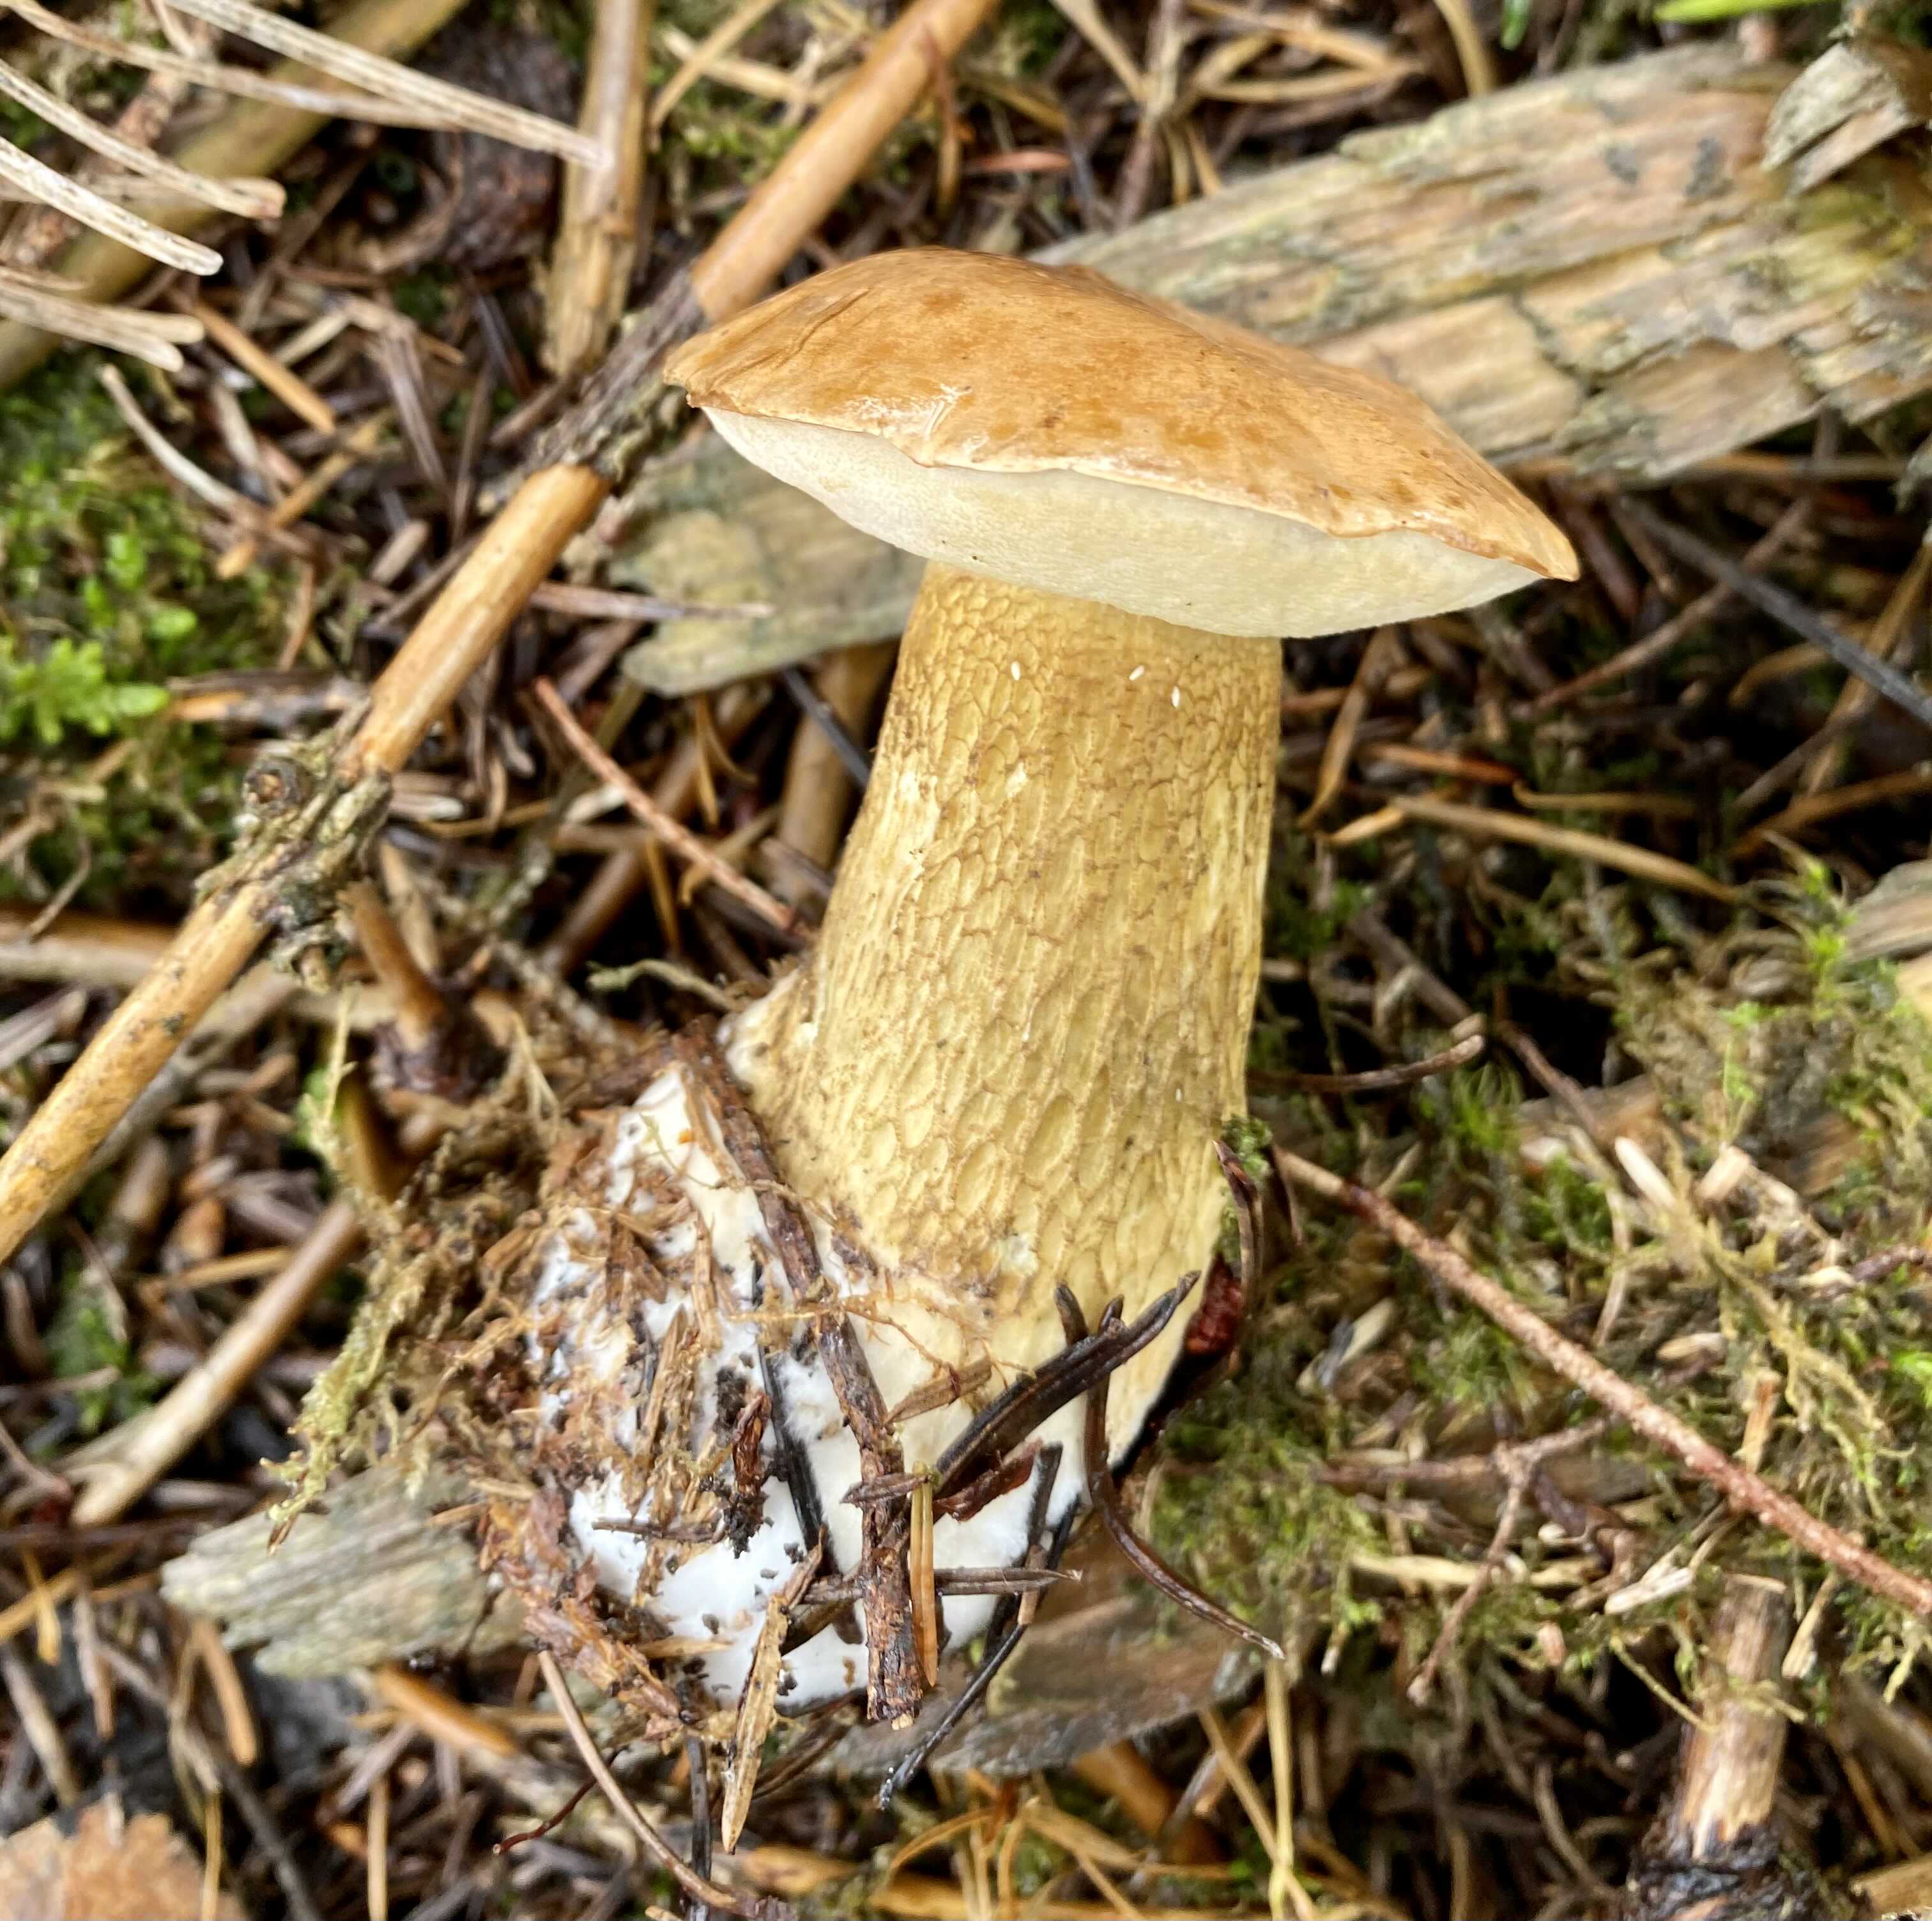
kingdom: Fungi
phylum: Basidiomycota
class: Agaricomycetes
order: Boletales
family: Boletaceae
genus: Tylopilus
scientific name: Tylopilus felleus
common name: galderørhat
